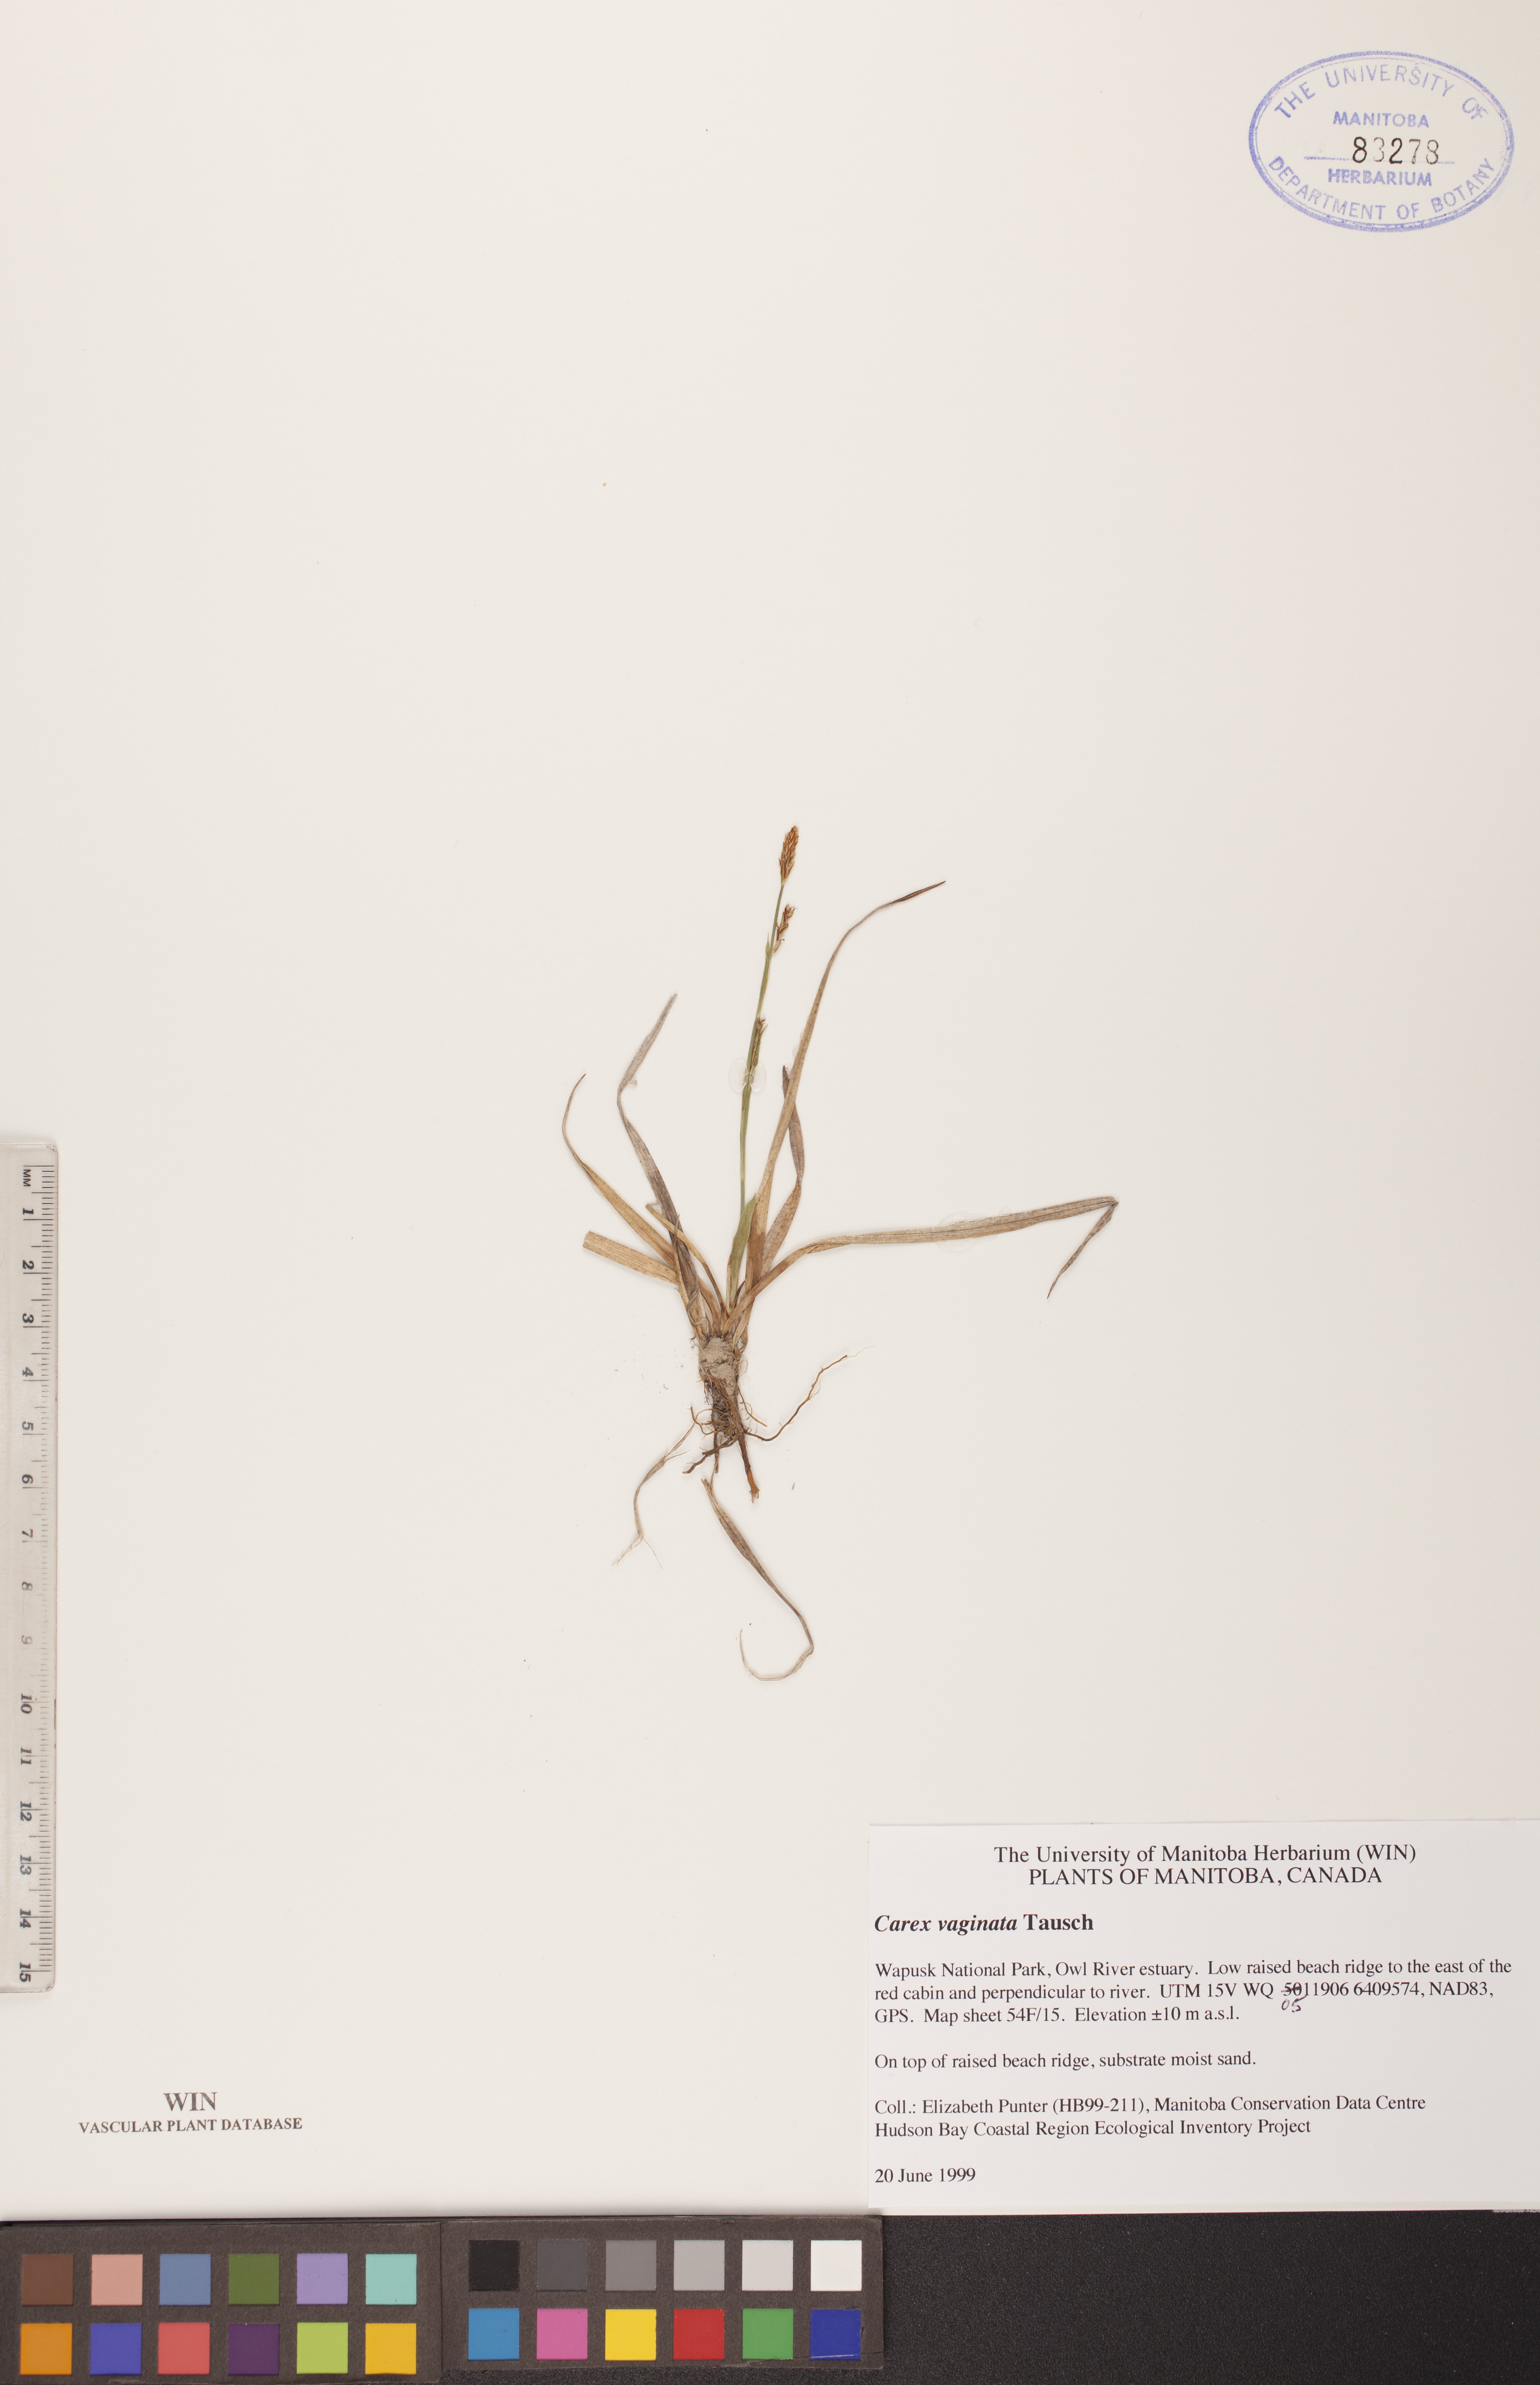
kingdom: Plantae
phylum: Tracheophyta
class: Liliopsida
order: Poales
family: Cyperaceae
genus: Carex
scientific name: Carex vaginata
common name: Sheathed sedge
